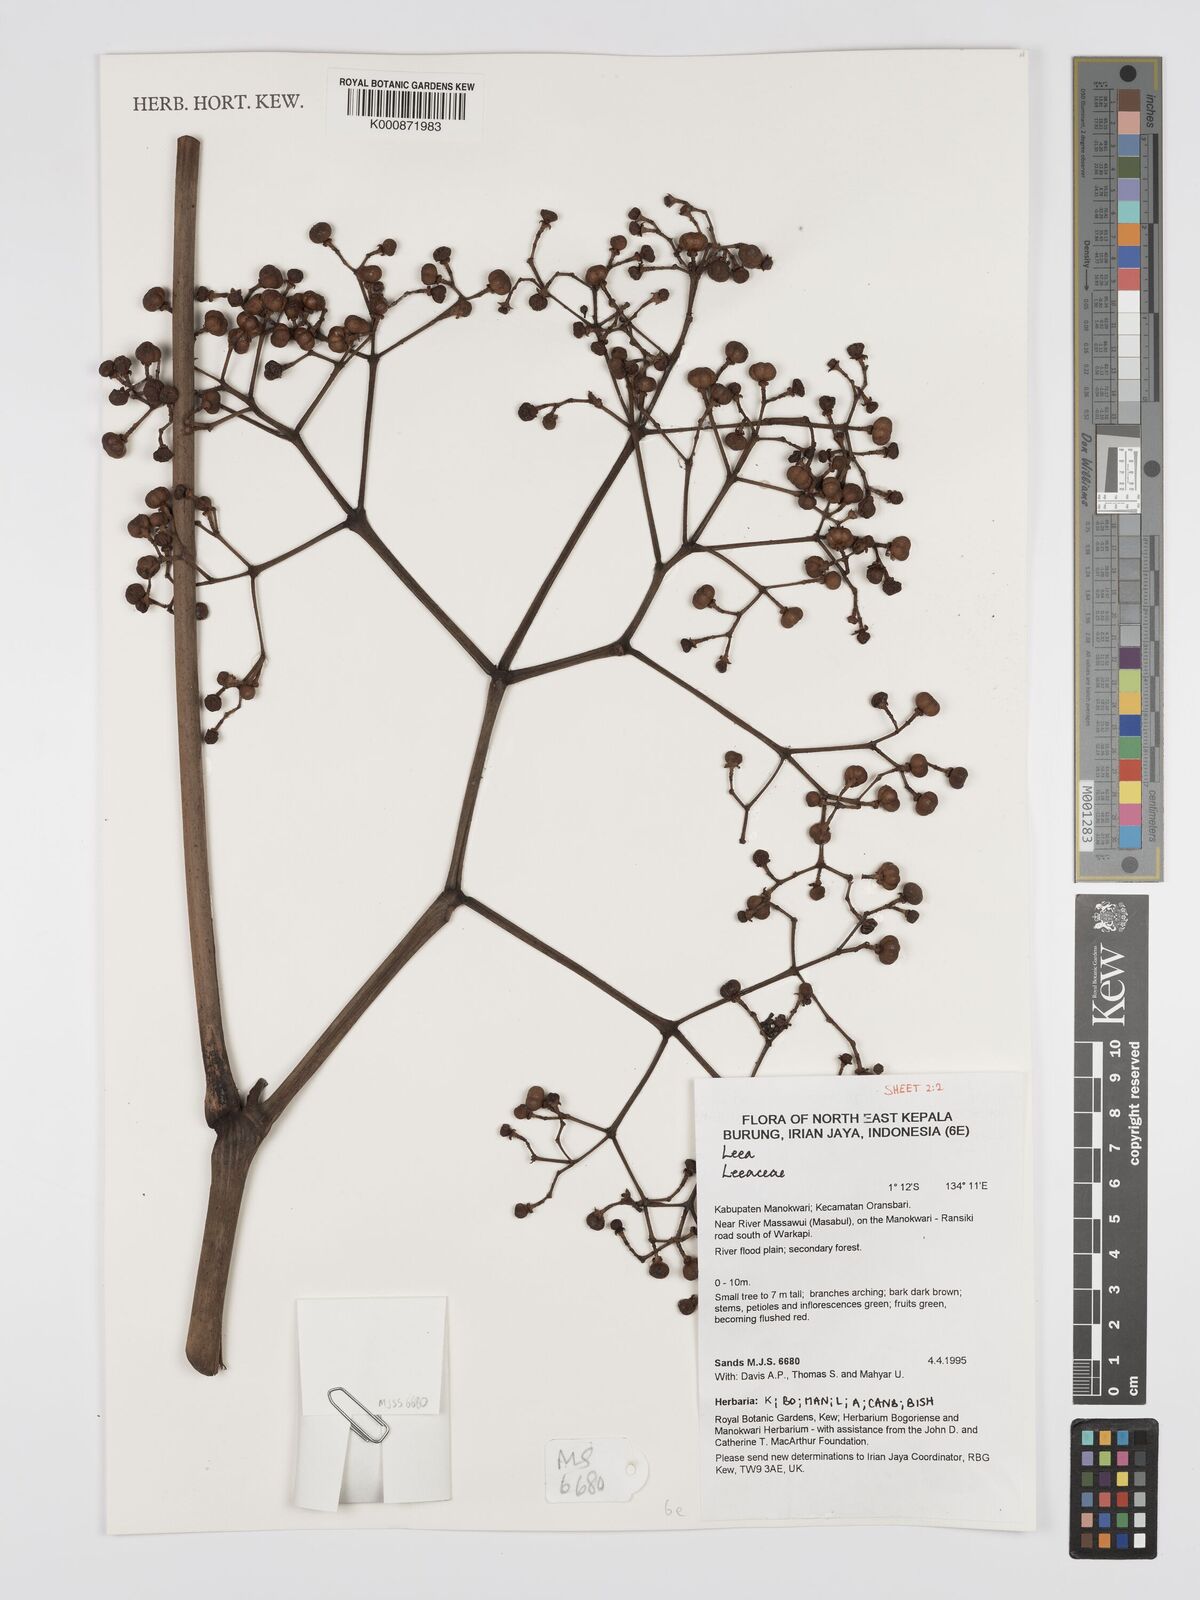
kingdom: Plantae
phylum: Tracheophyta
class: Magnoliopsida
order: Vitales
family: Vitaceae
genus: Leea
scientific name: Leea
